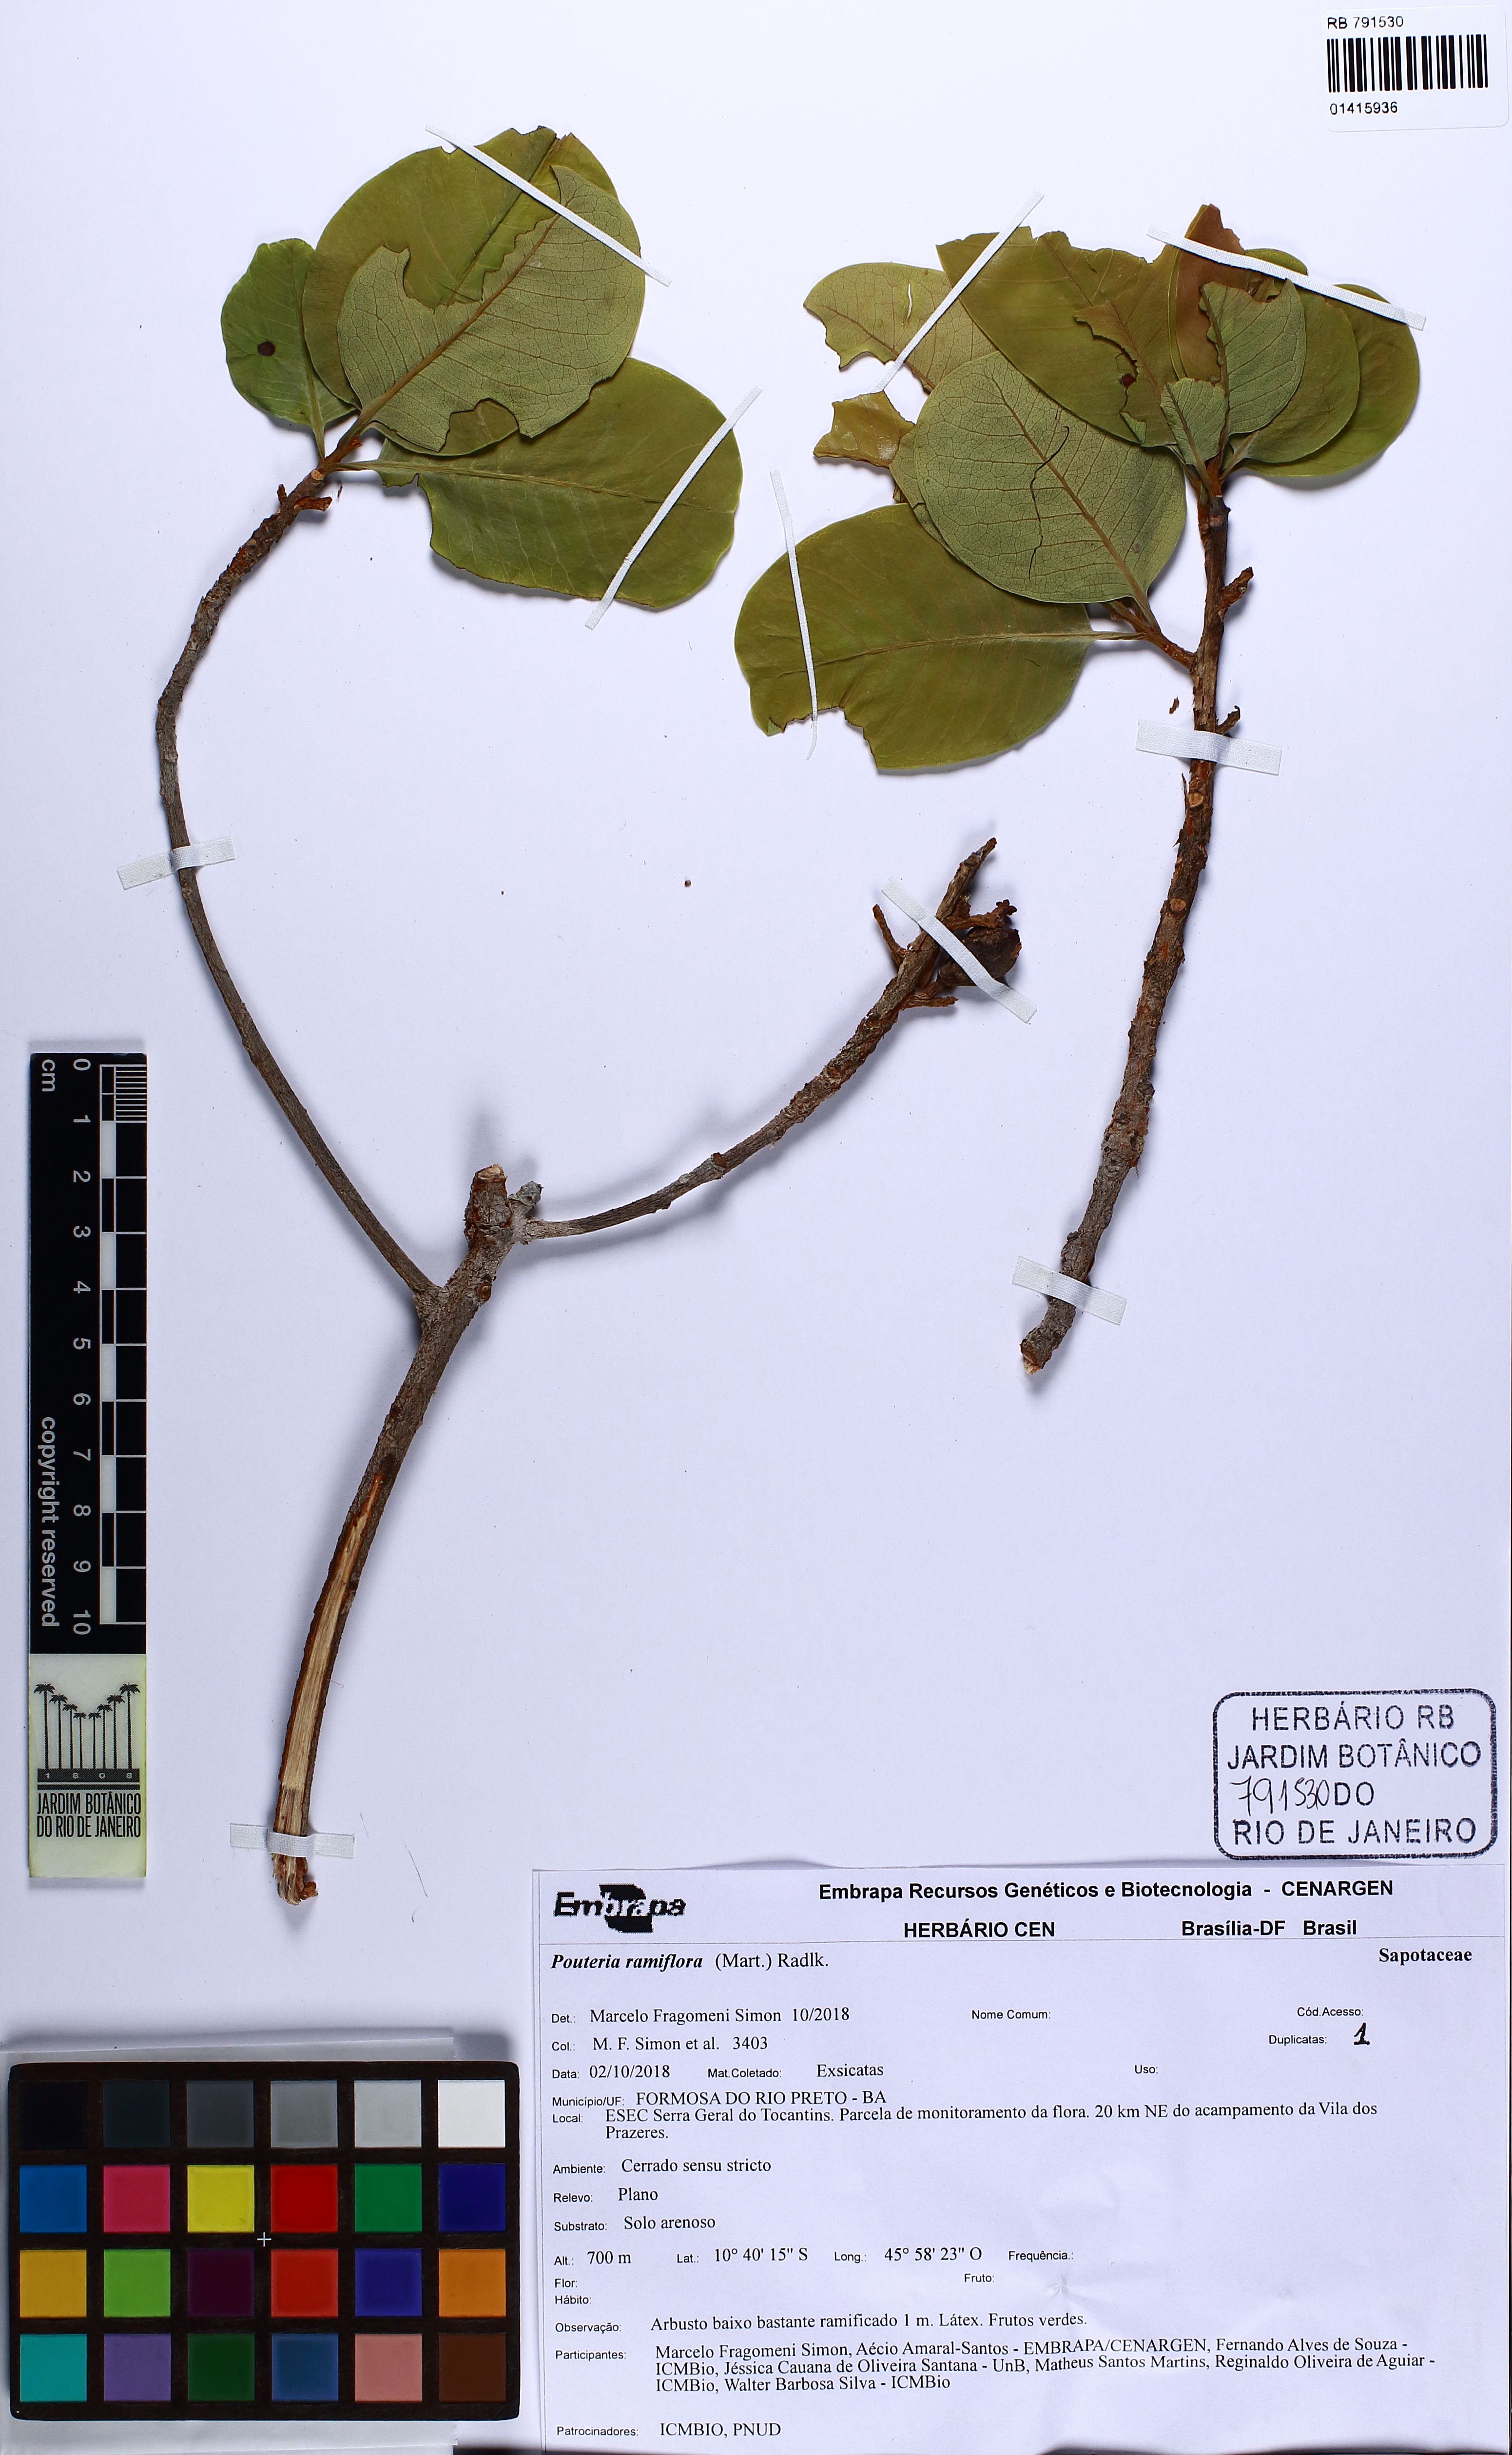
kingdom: Plantae
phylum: Tracheophyta
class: Magnoliopsida
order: Ericales
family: Sapotaceae
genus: Pouteria
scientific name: Pouteria ramiflora
